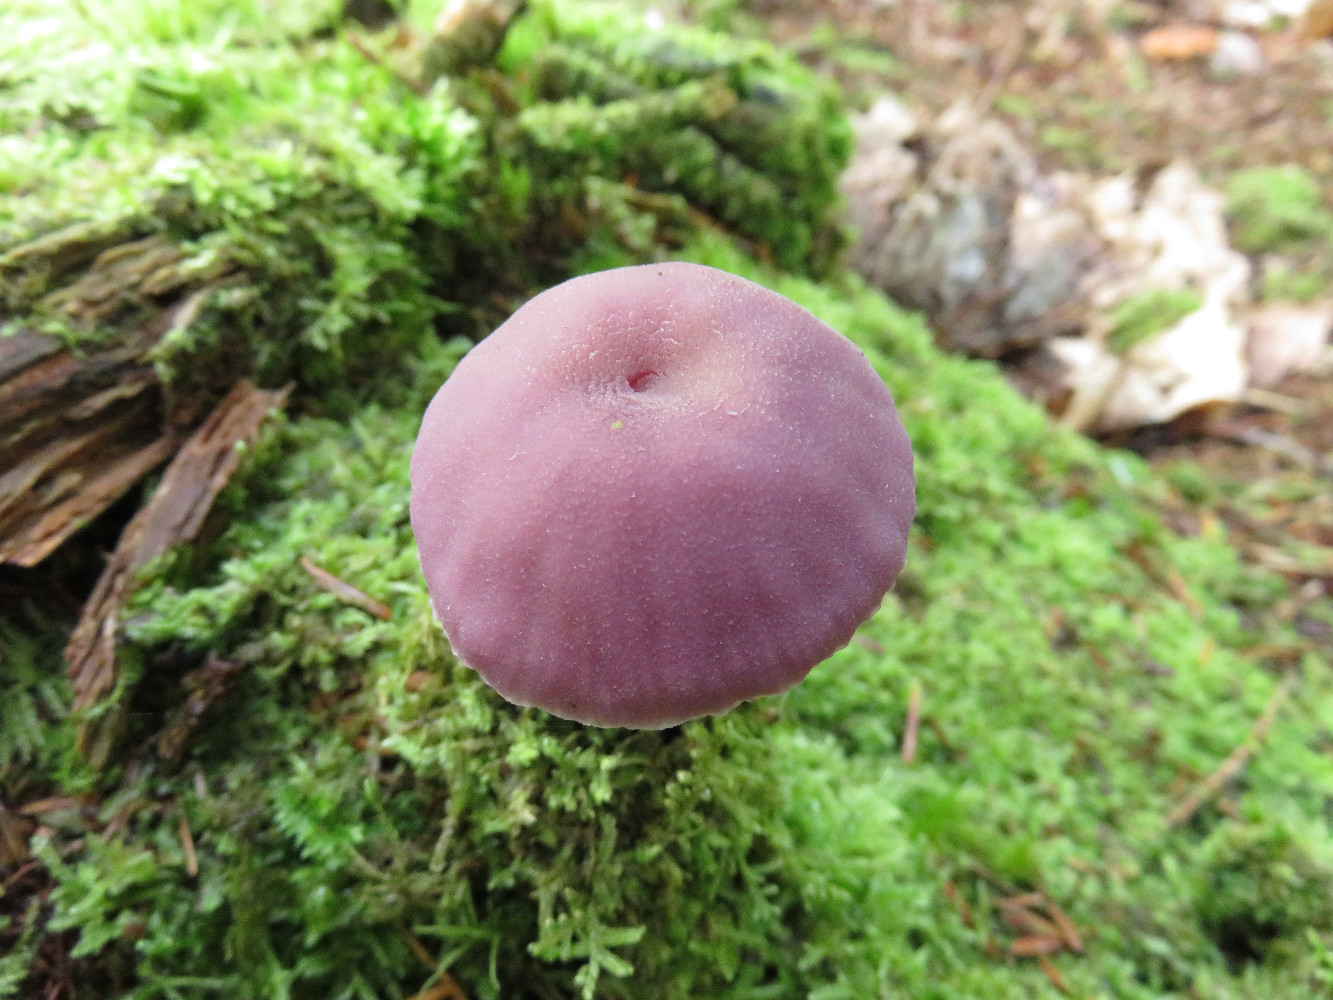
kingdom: Fungi
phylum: Basidiomycota
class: Agaricomycetes
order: Agaricales
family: Hydnangiaceae
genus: Laccaria
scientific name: Laccaria amethystina
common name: violet ametysthat
